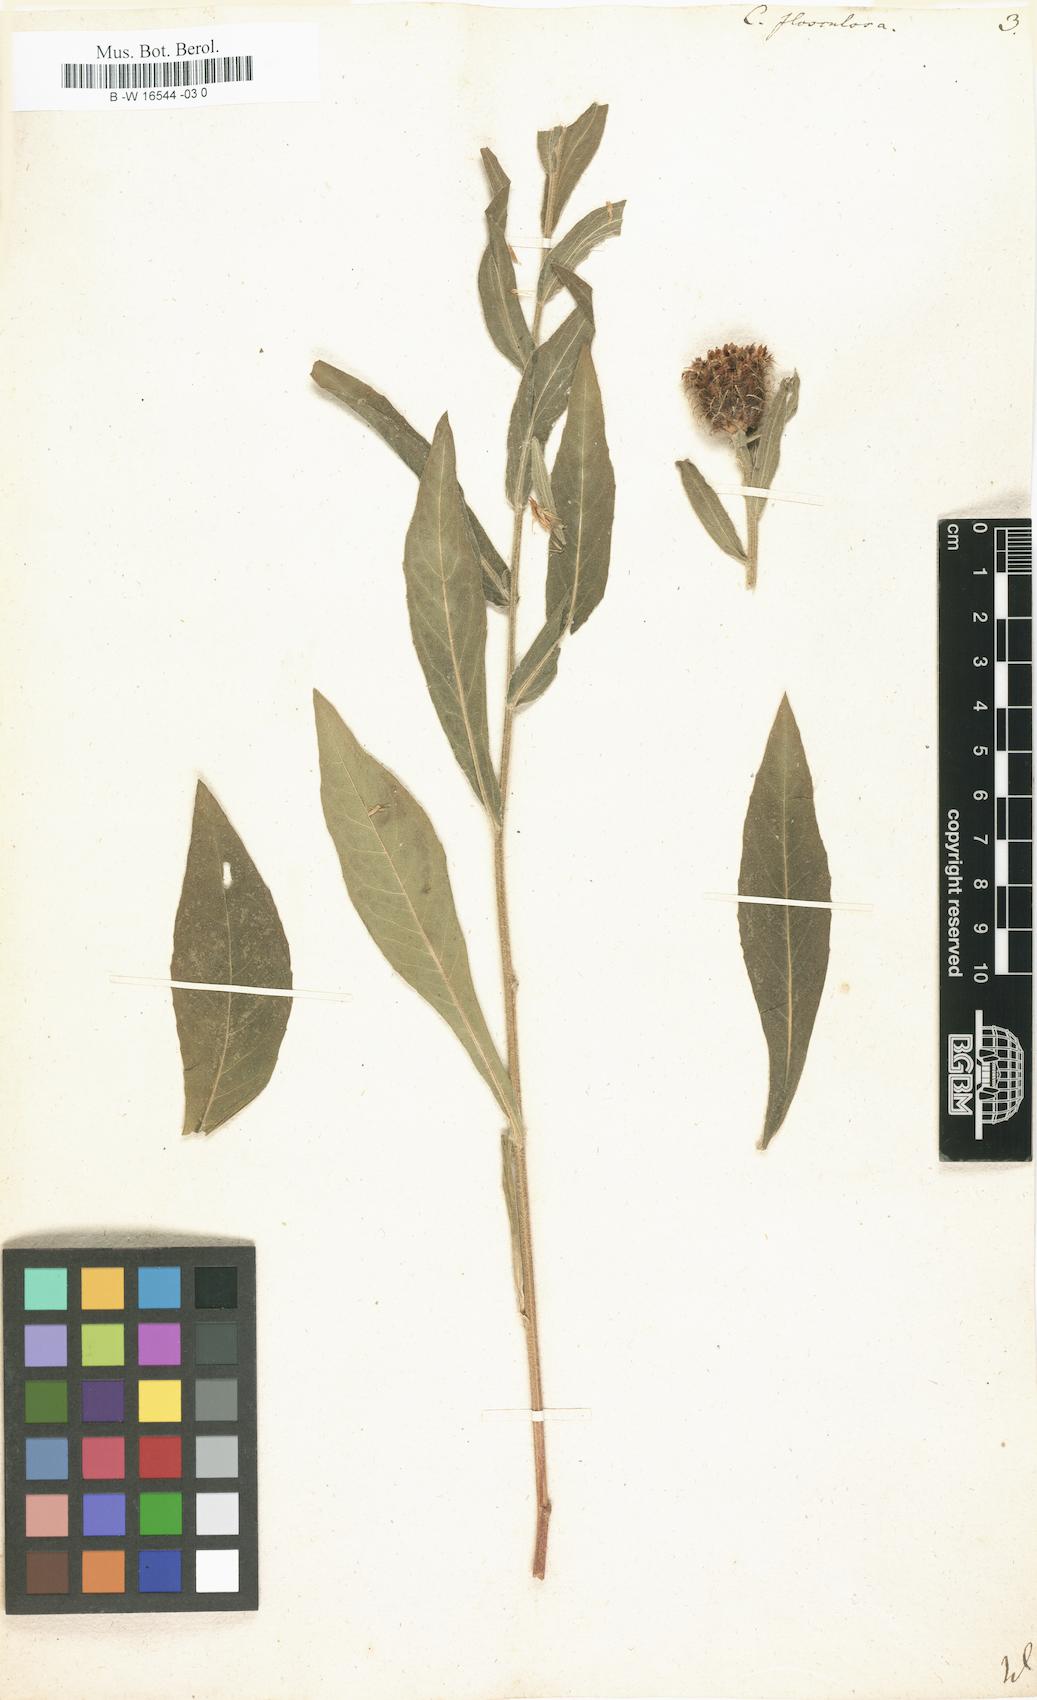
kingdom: Plantae
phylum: Tracheophyta
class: Magnoliopsida
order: Asterales
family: Asteraceae
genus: Centaurea
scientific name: Centaurea flosculosa
